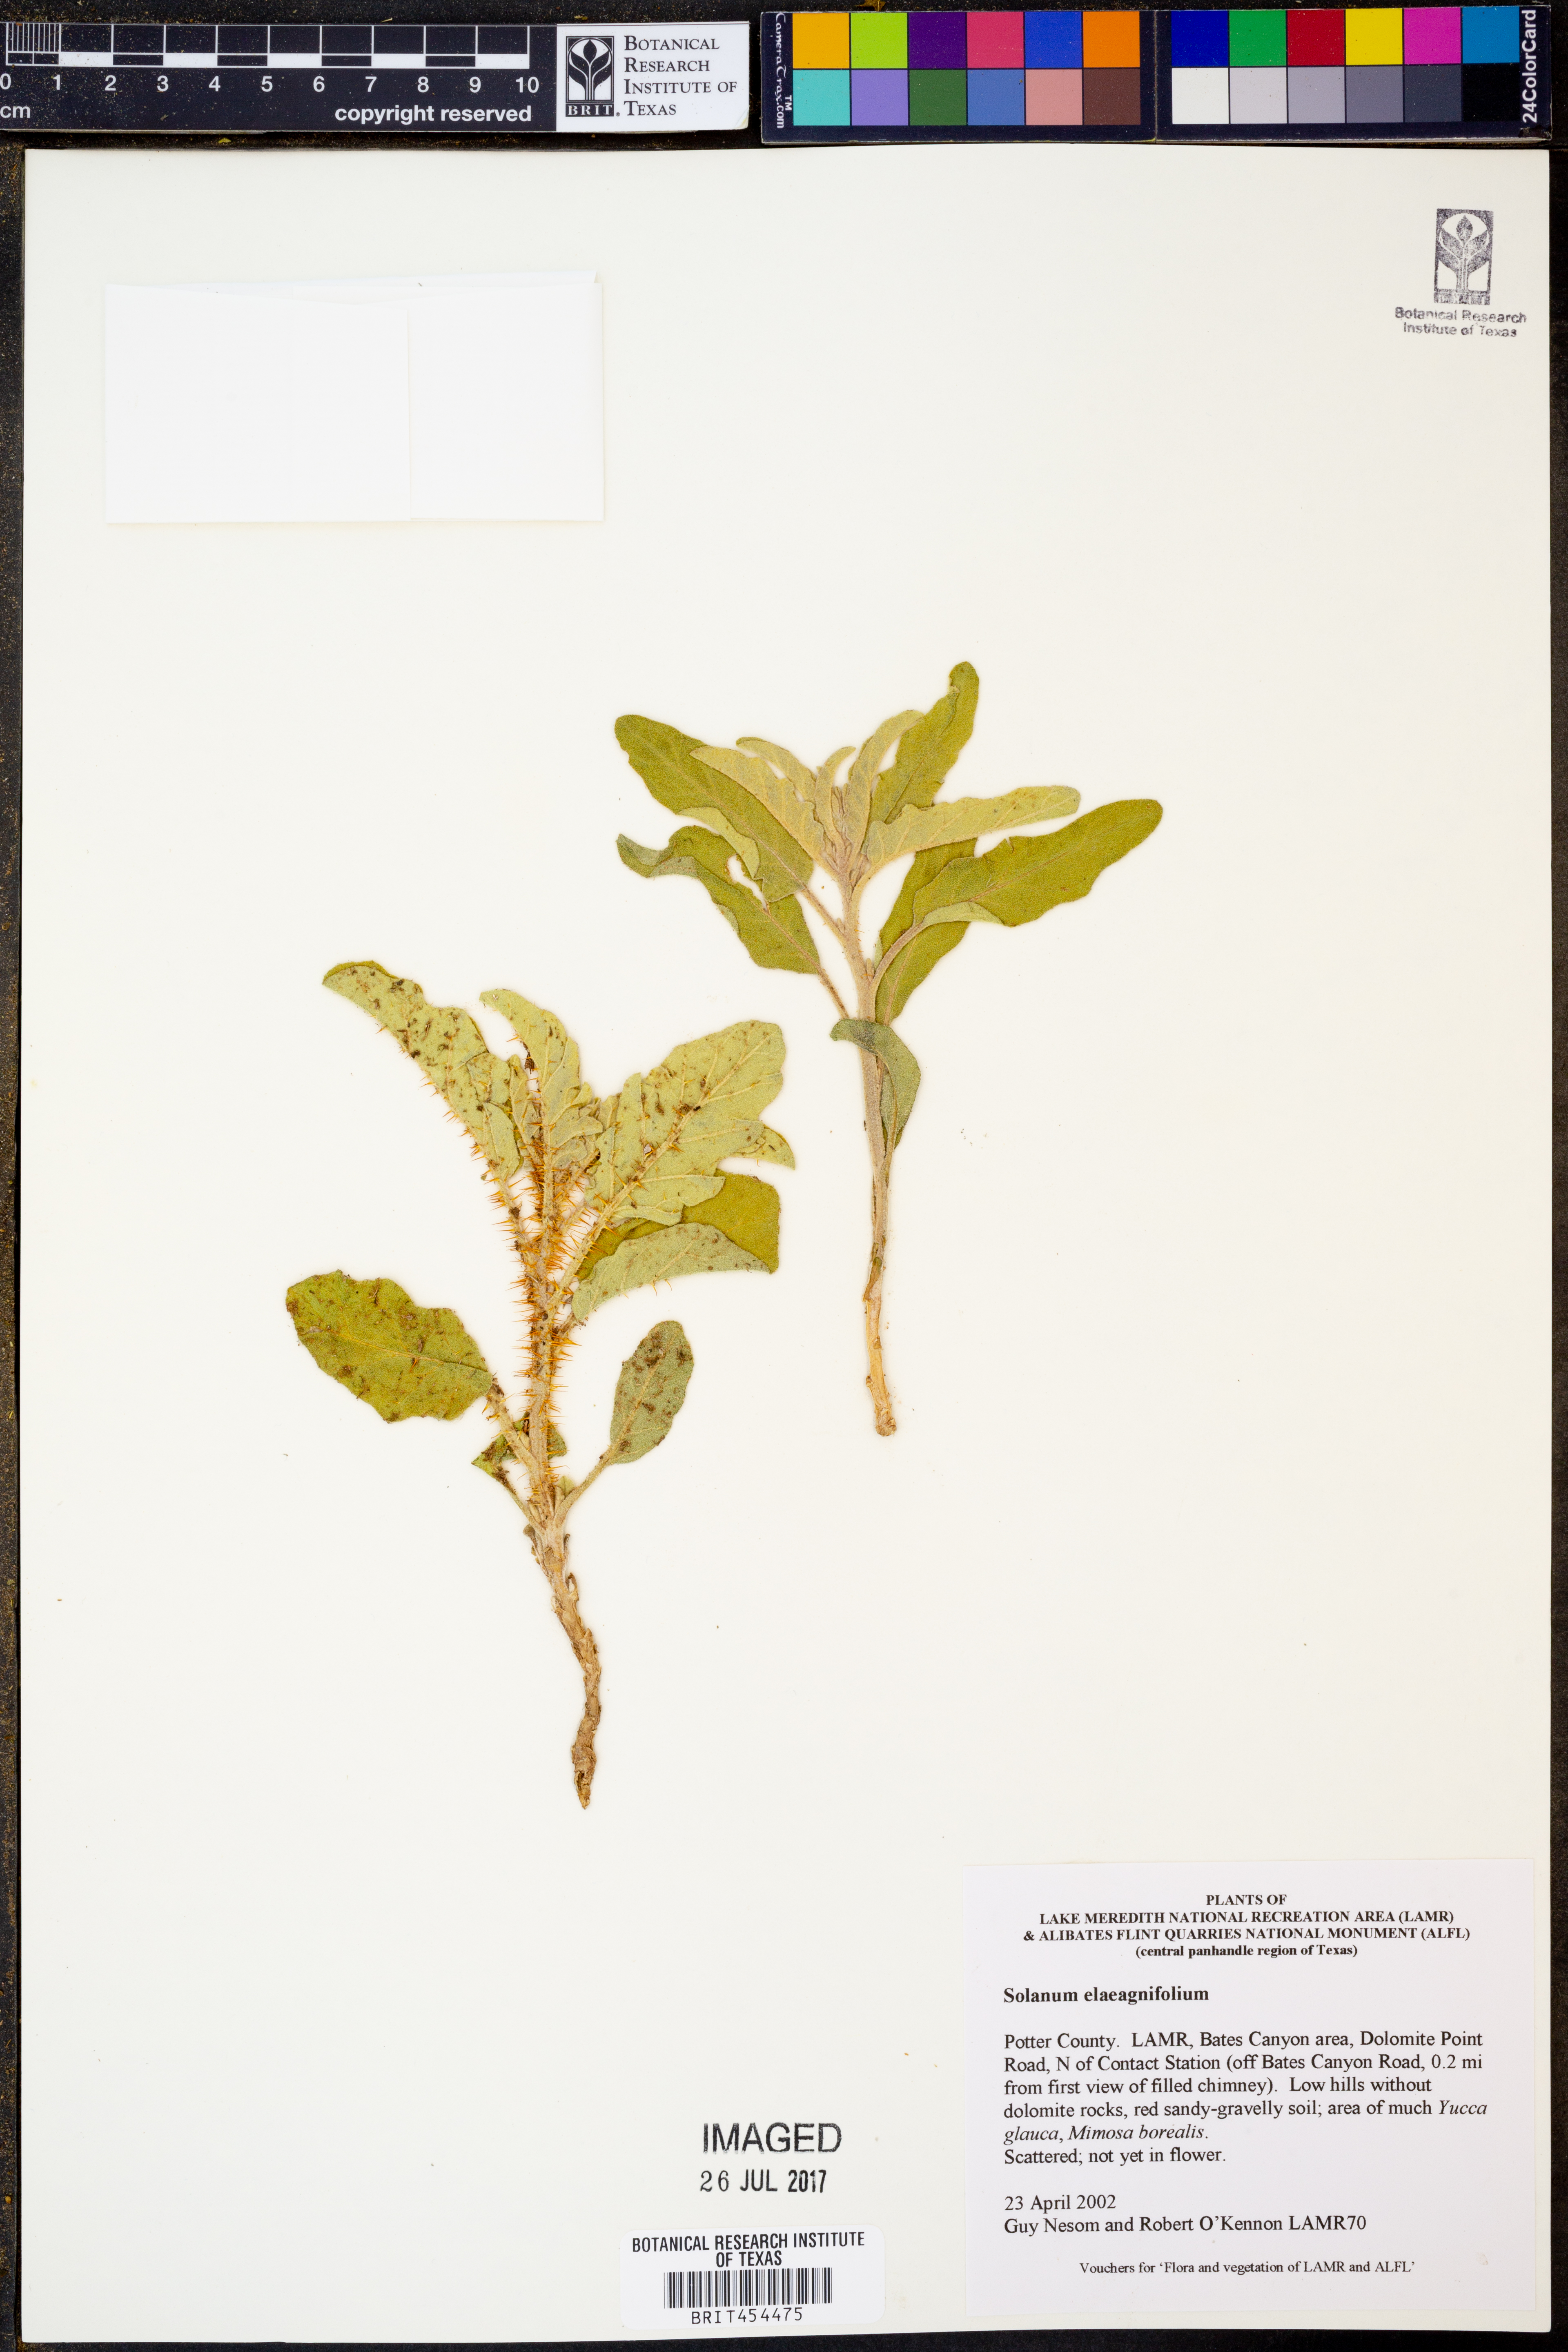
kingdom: Plantae
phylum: Tracheophyta
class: Magnoliopsida
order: Solanales
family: Solanaceae
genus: Solanum
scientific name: Solanum elaeagnifolium
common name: Silverleaf nightshade
